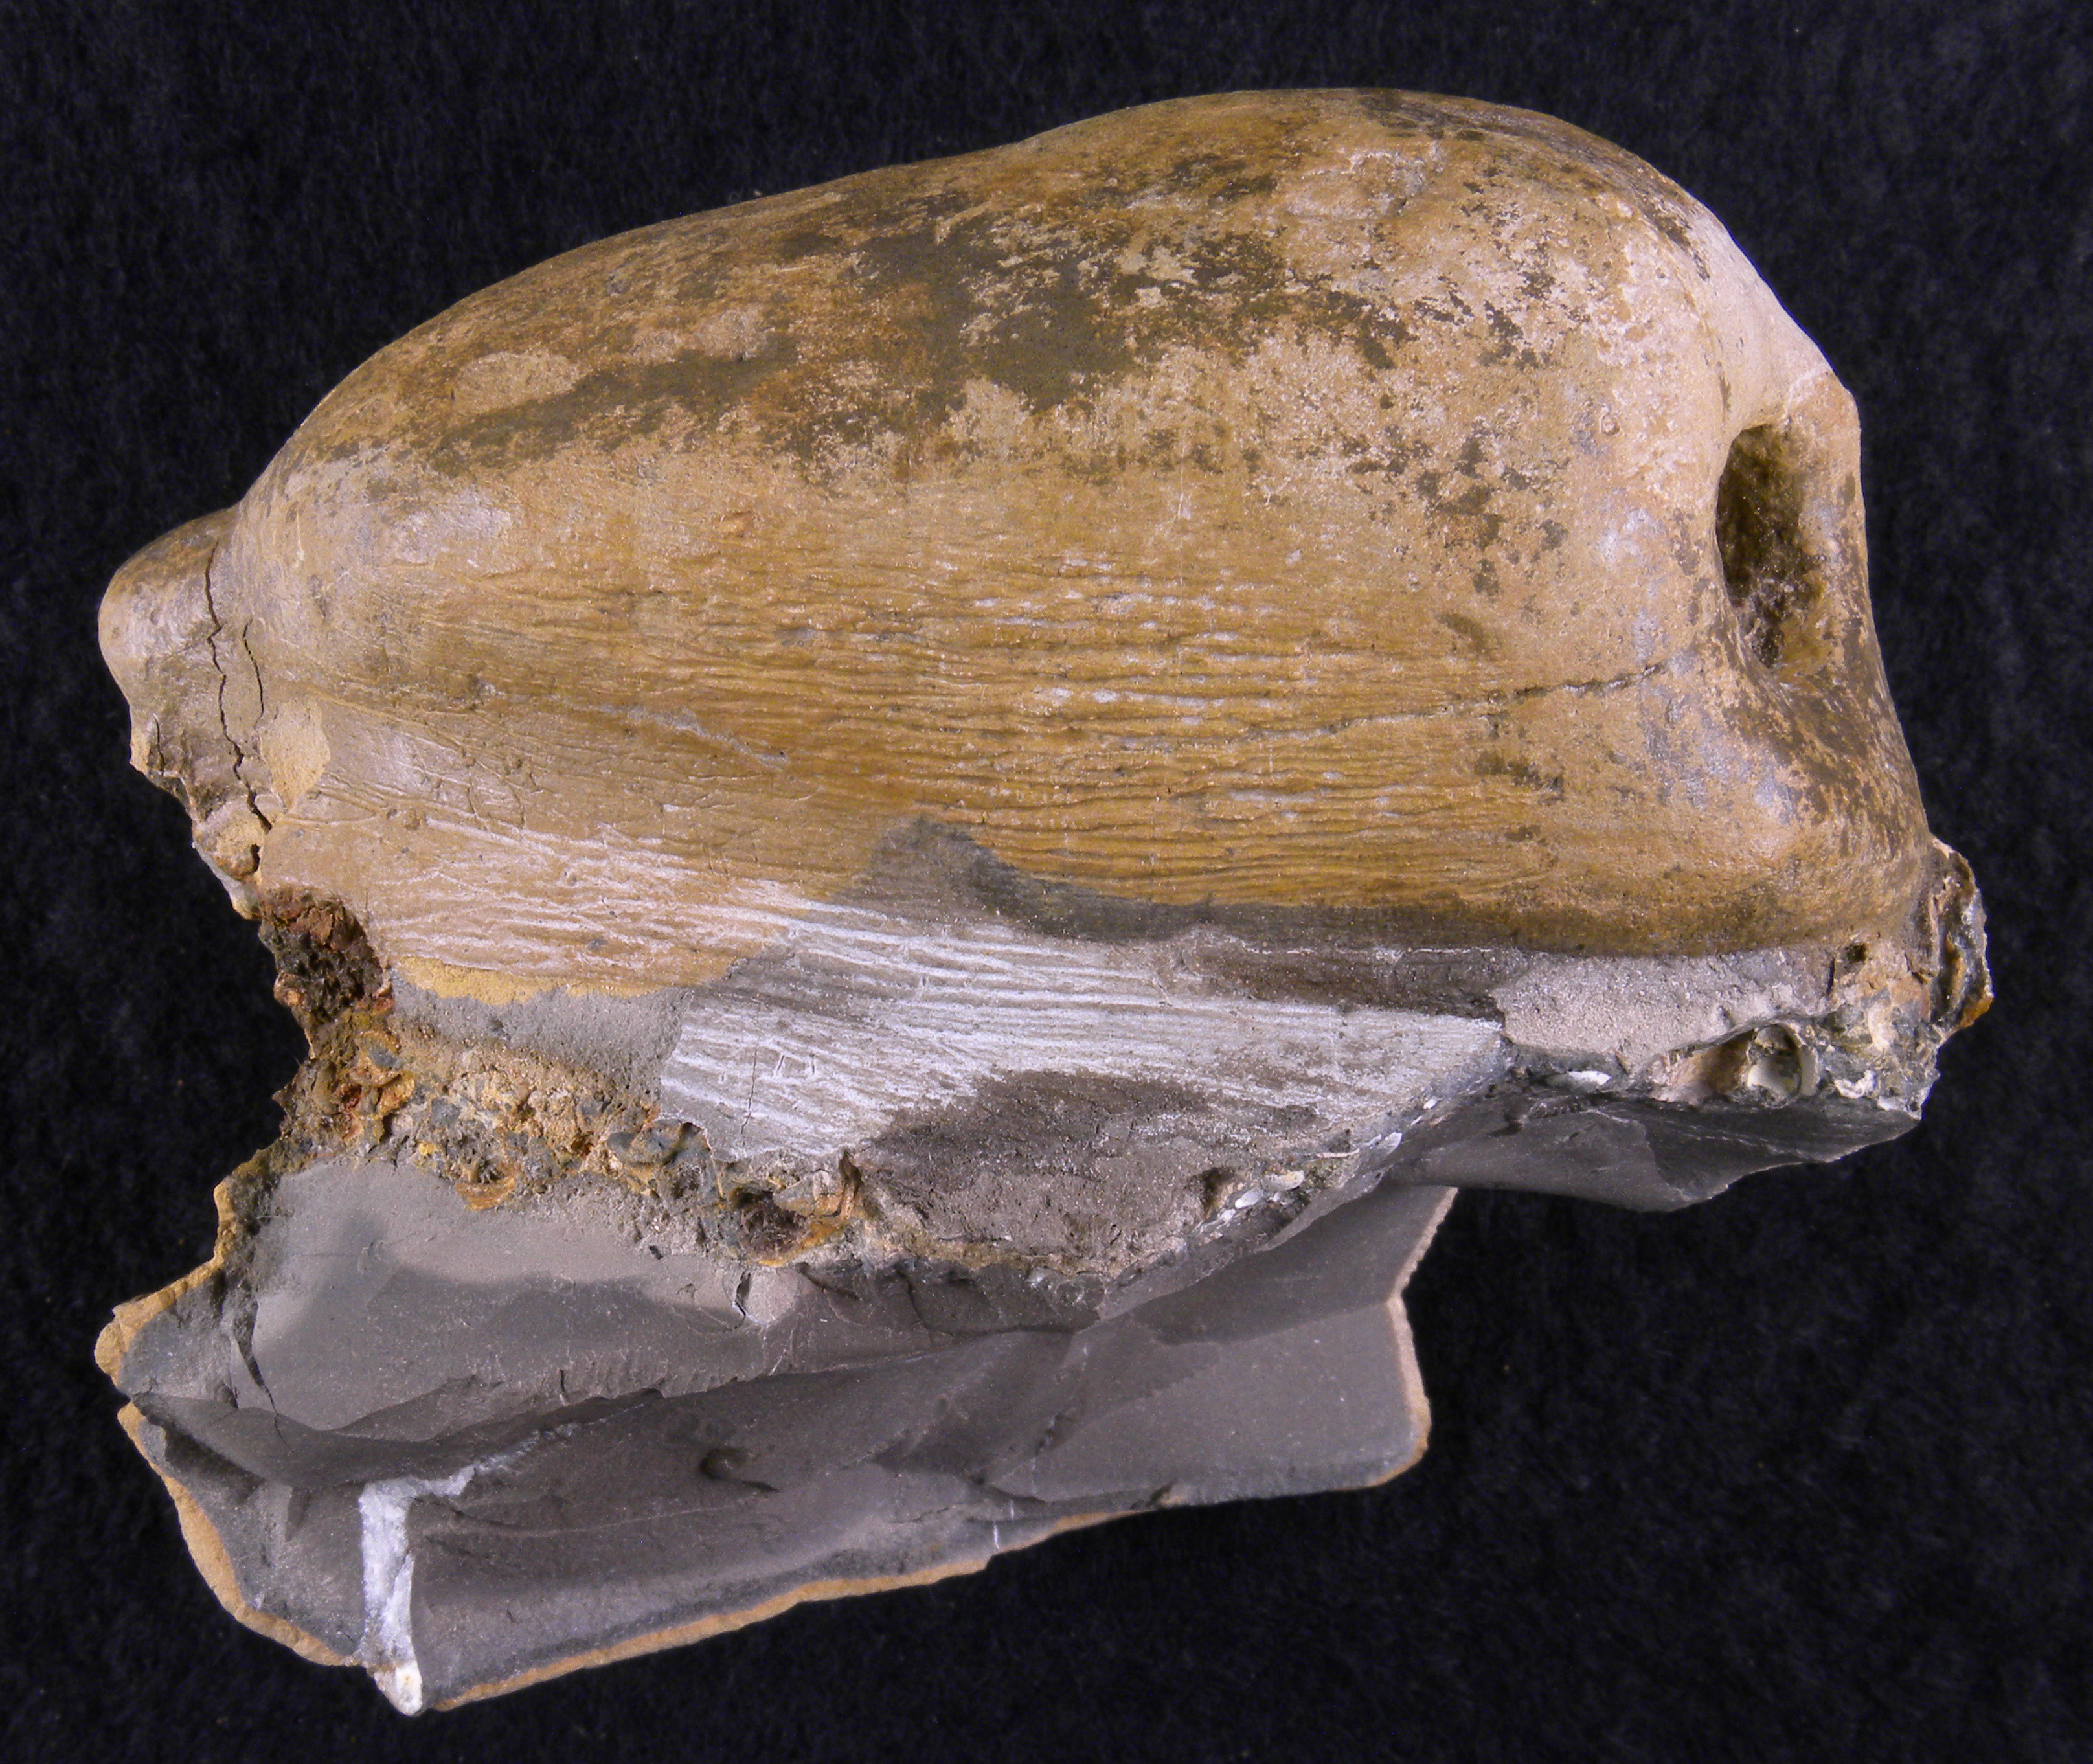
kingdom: Animalia
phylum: Porifera
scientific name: Porifera
